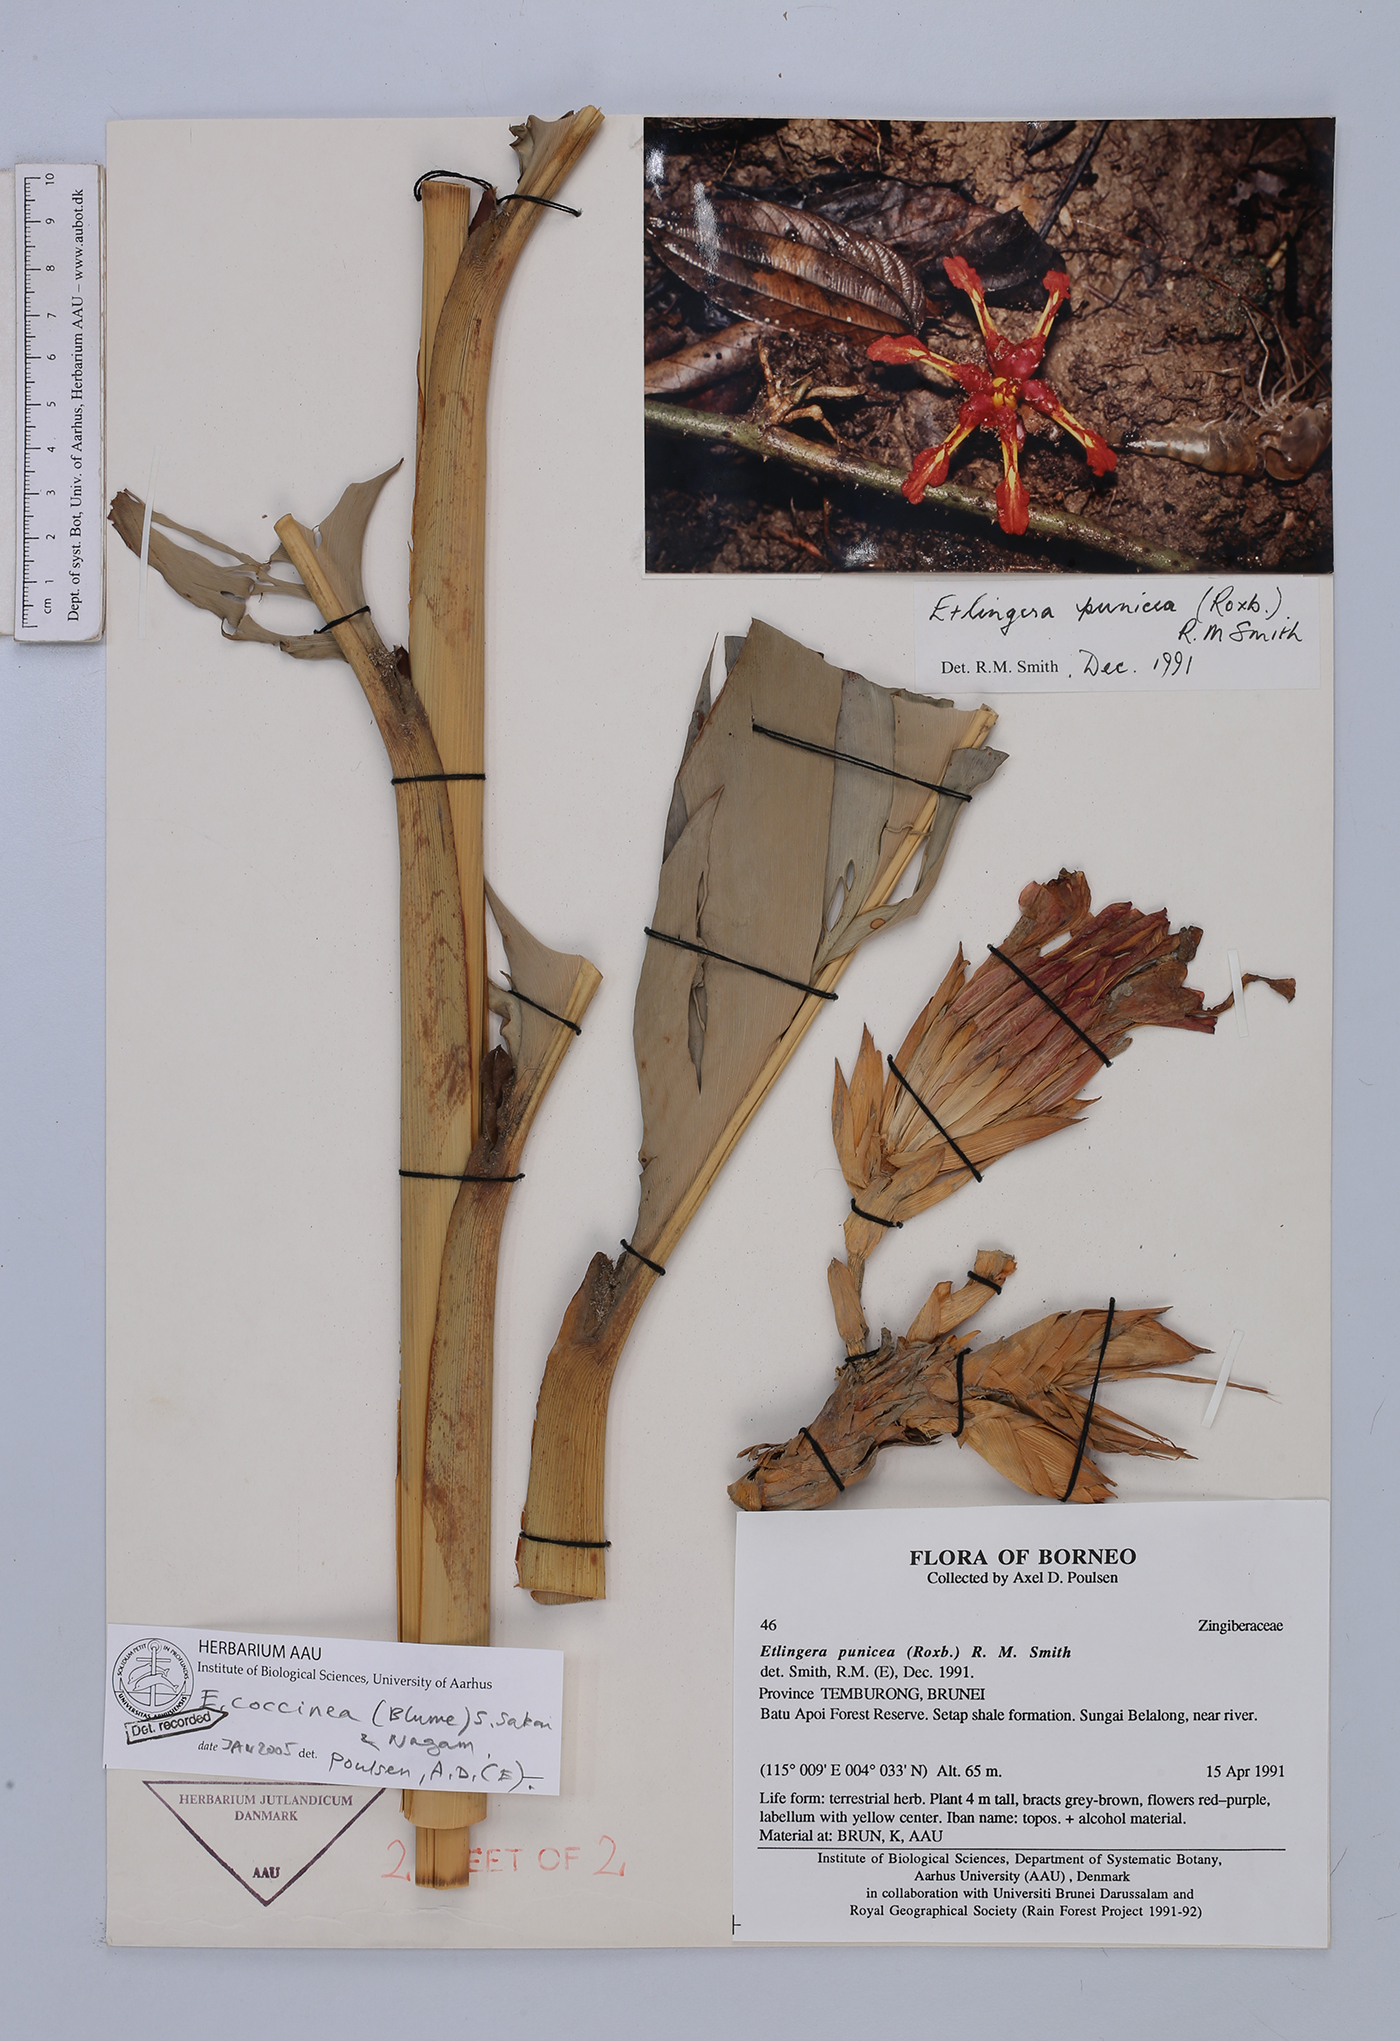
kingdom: Plantae
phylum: Tracheophyta
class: Liliopsida
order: Zingiberales
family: Zingiberaceae
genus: Etlingera
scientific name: Etlingera coccinea
